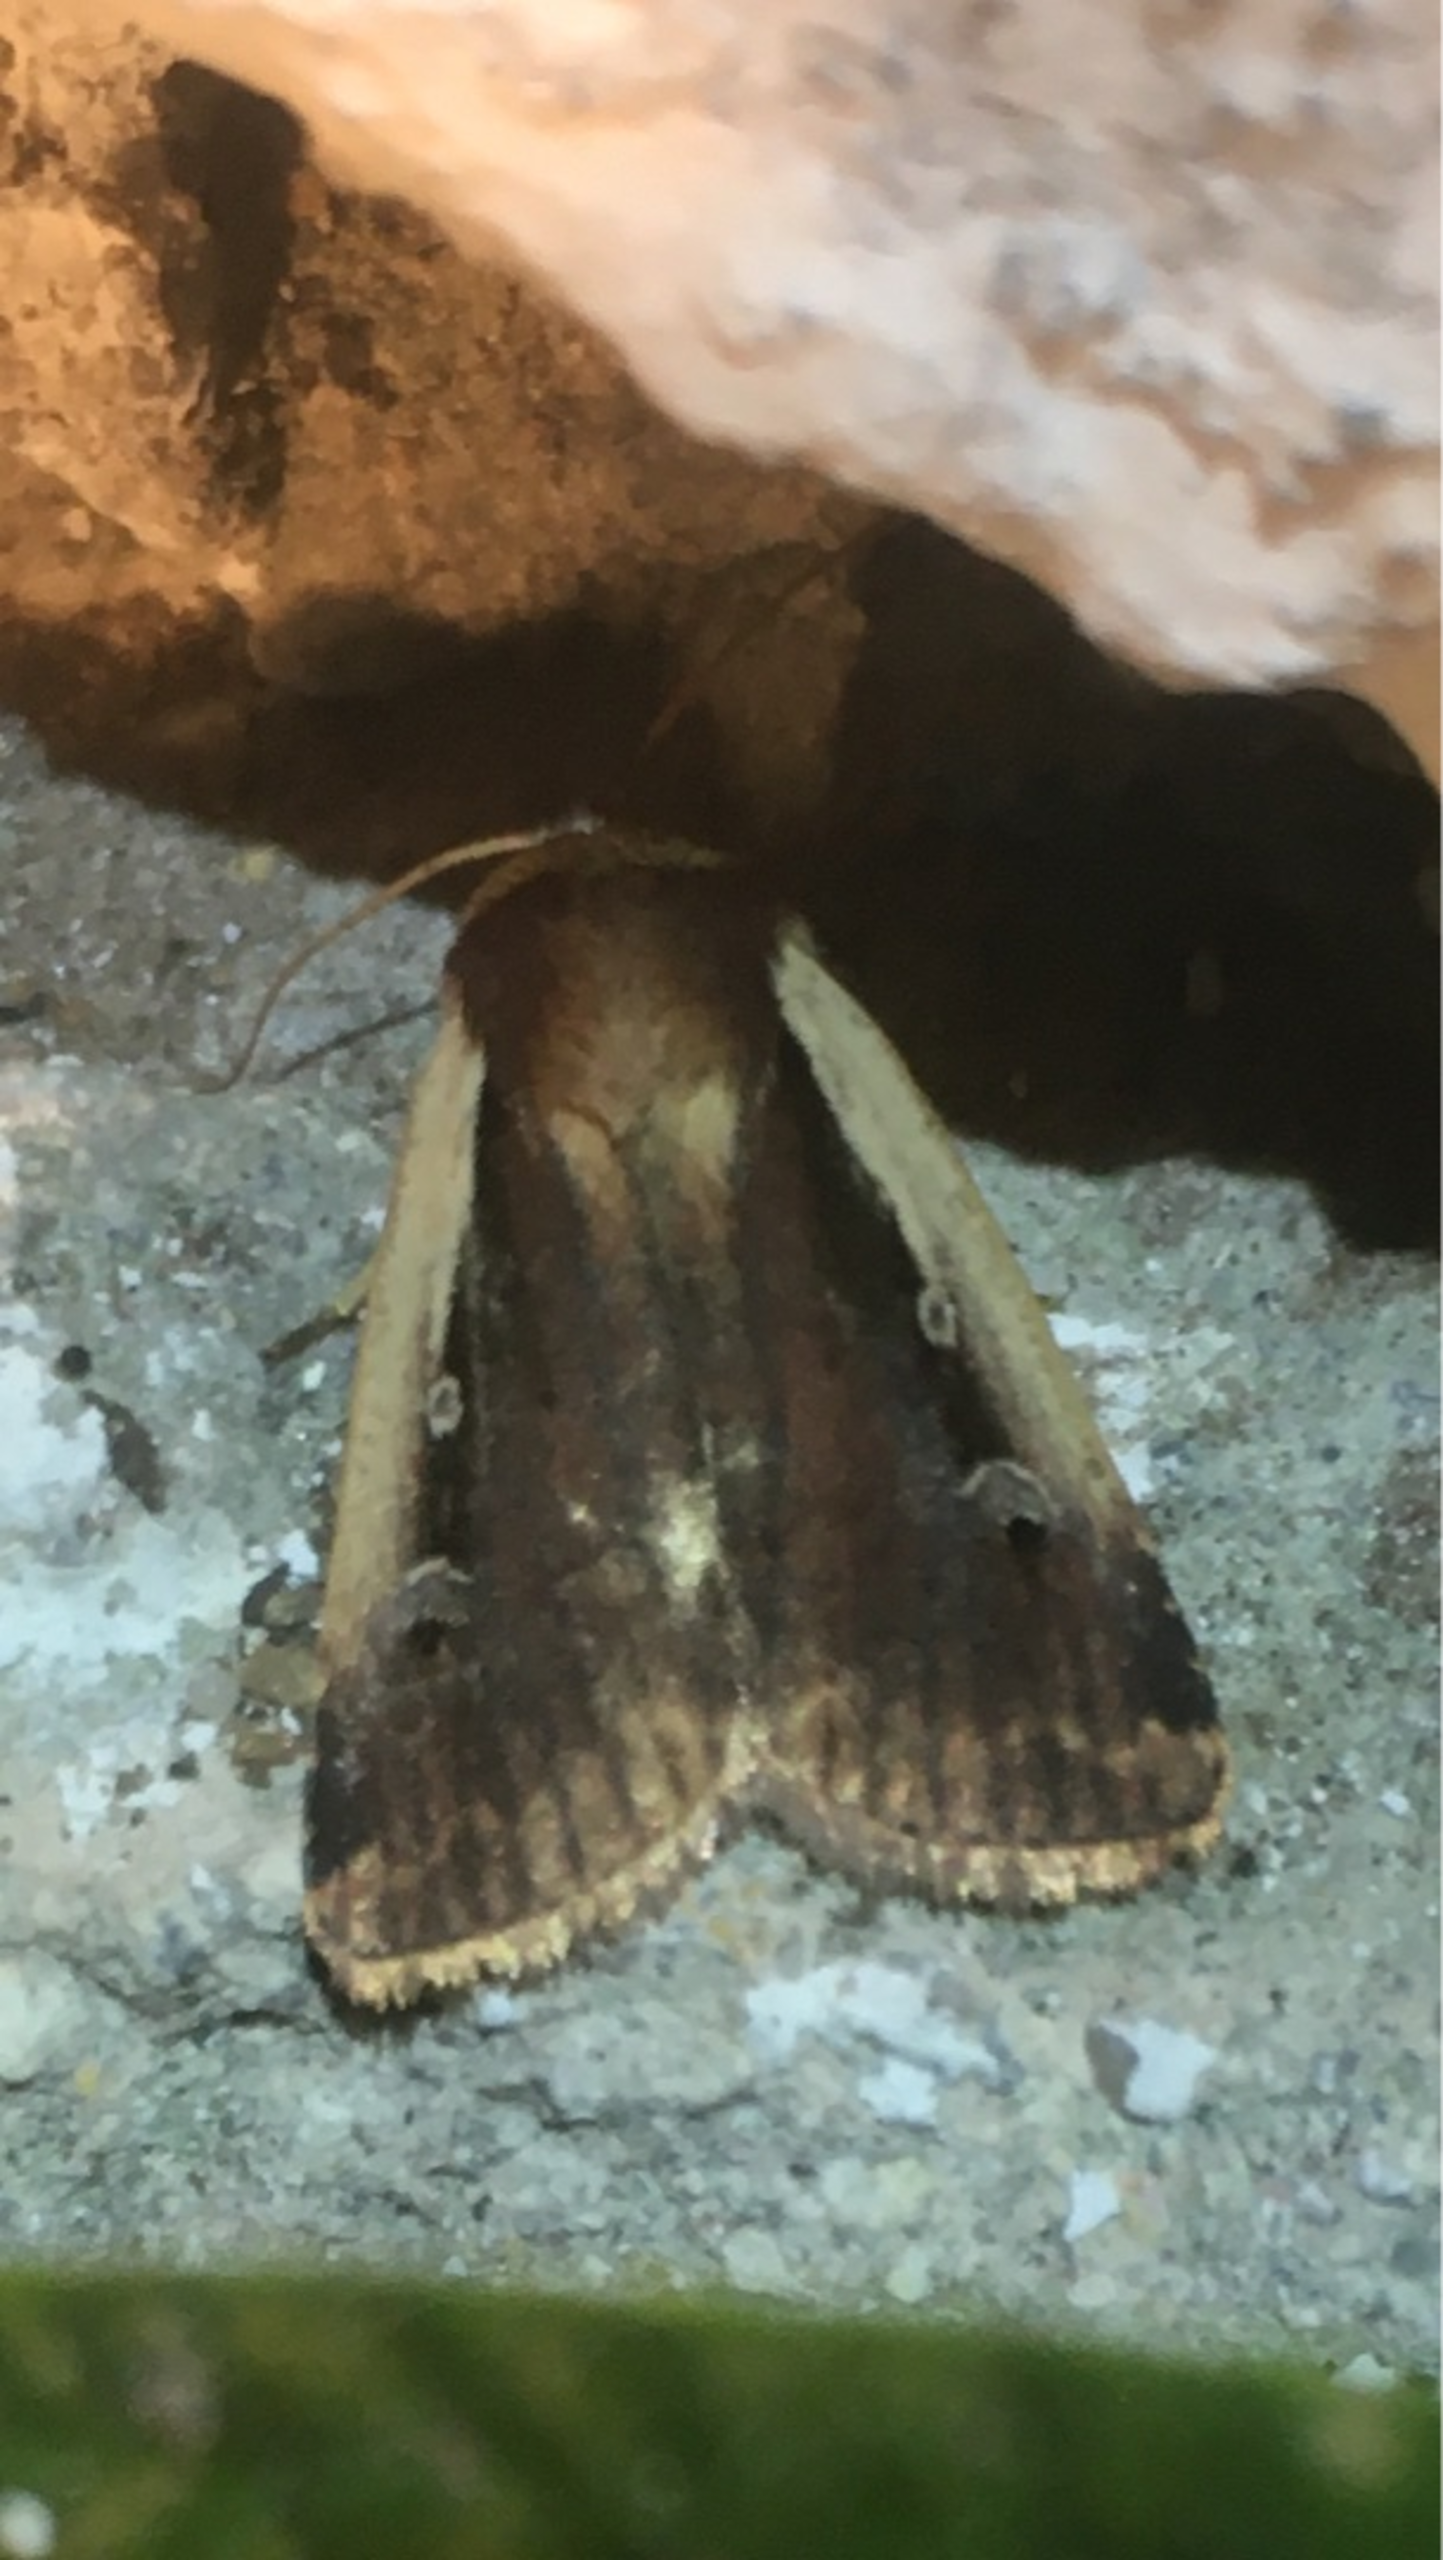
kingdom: Animalia
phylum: Arthropoda
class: Insecta
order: Lepidoptera
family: Noctuidae
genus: Ochropleura
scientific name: Ochropleura plecta
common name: Hvidrandet jordugle
